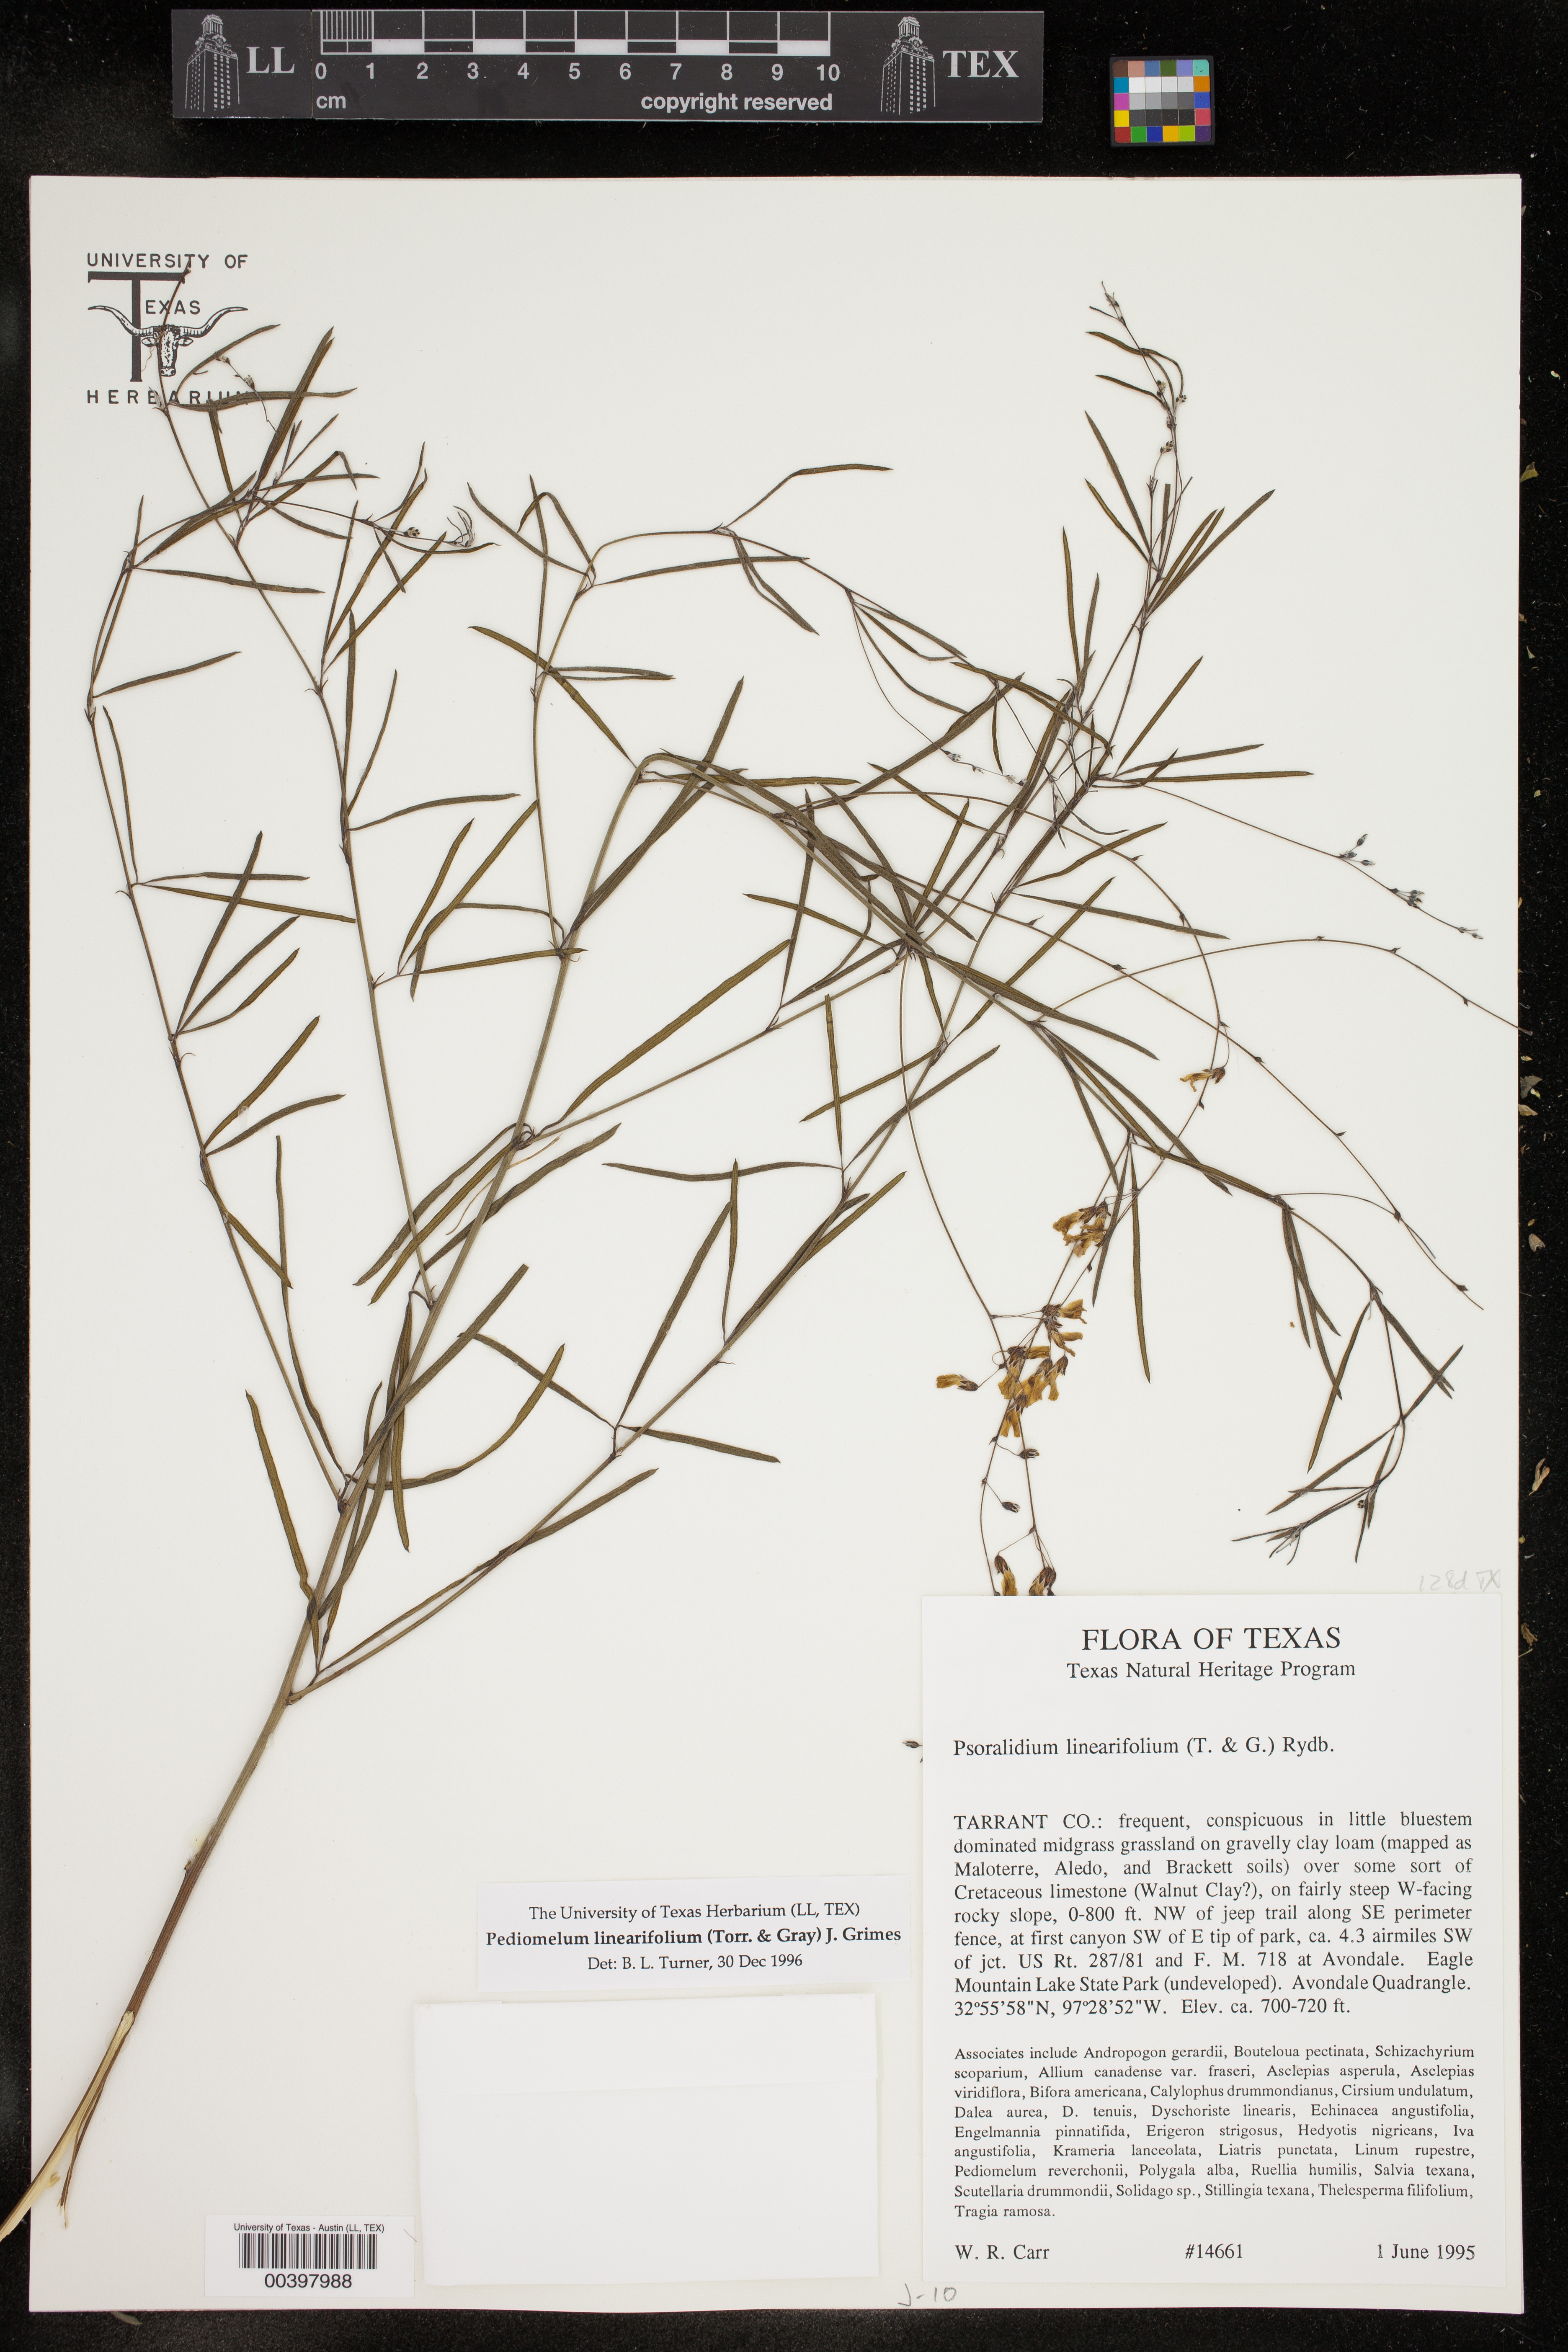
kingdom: Plantae
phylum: Tracheophyta
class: Magnoliopsida
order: Fabales
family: Fabaceae
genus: Pediomelum
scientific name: Pediomelum linearifolium
